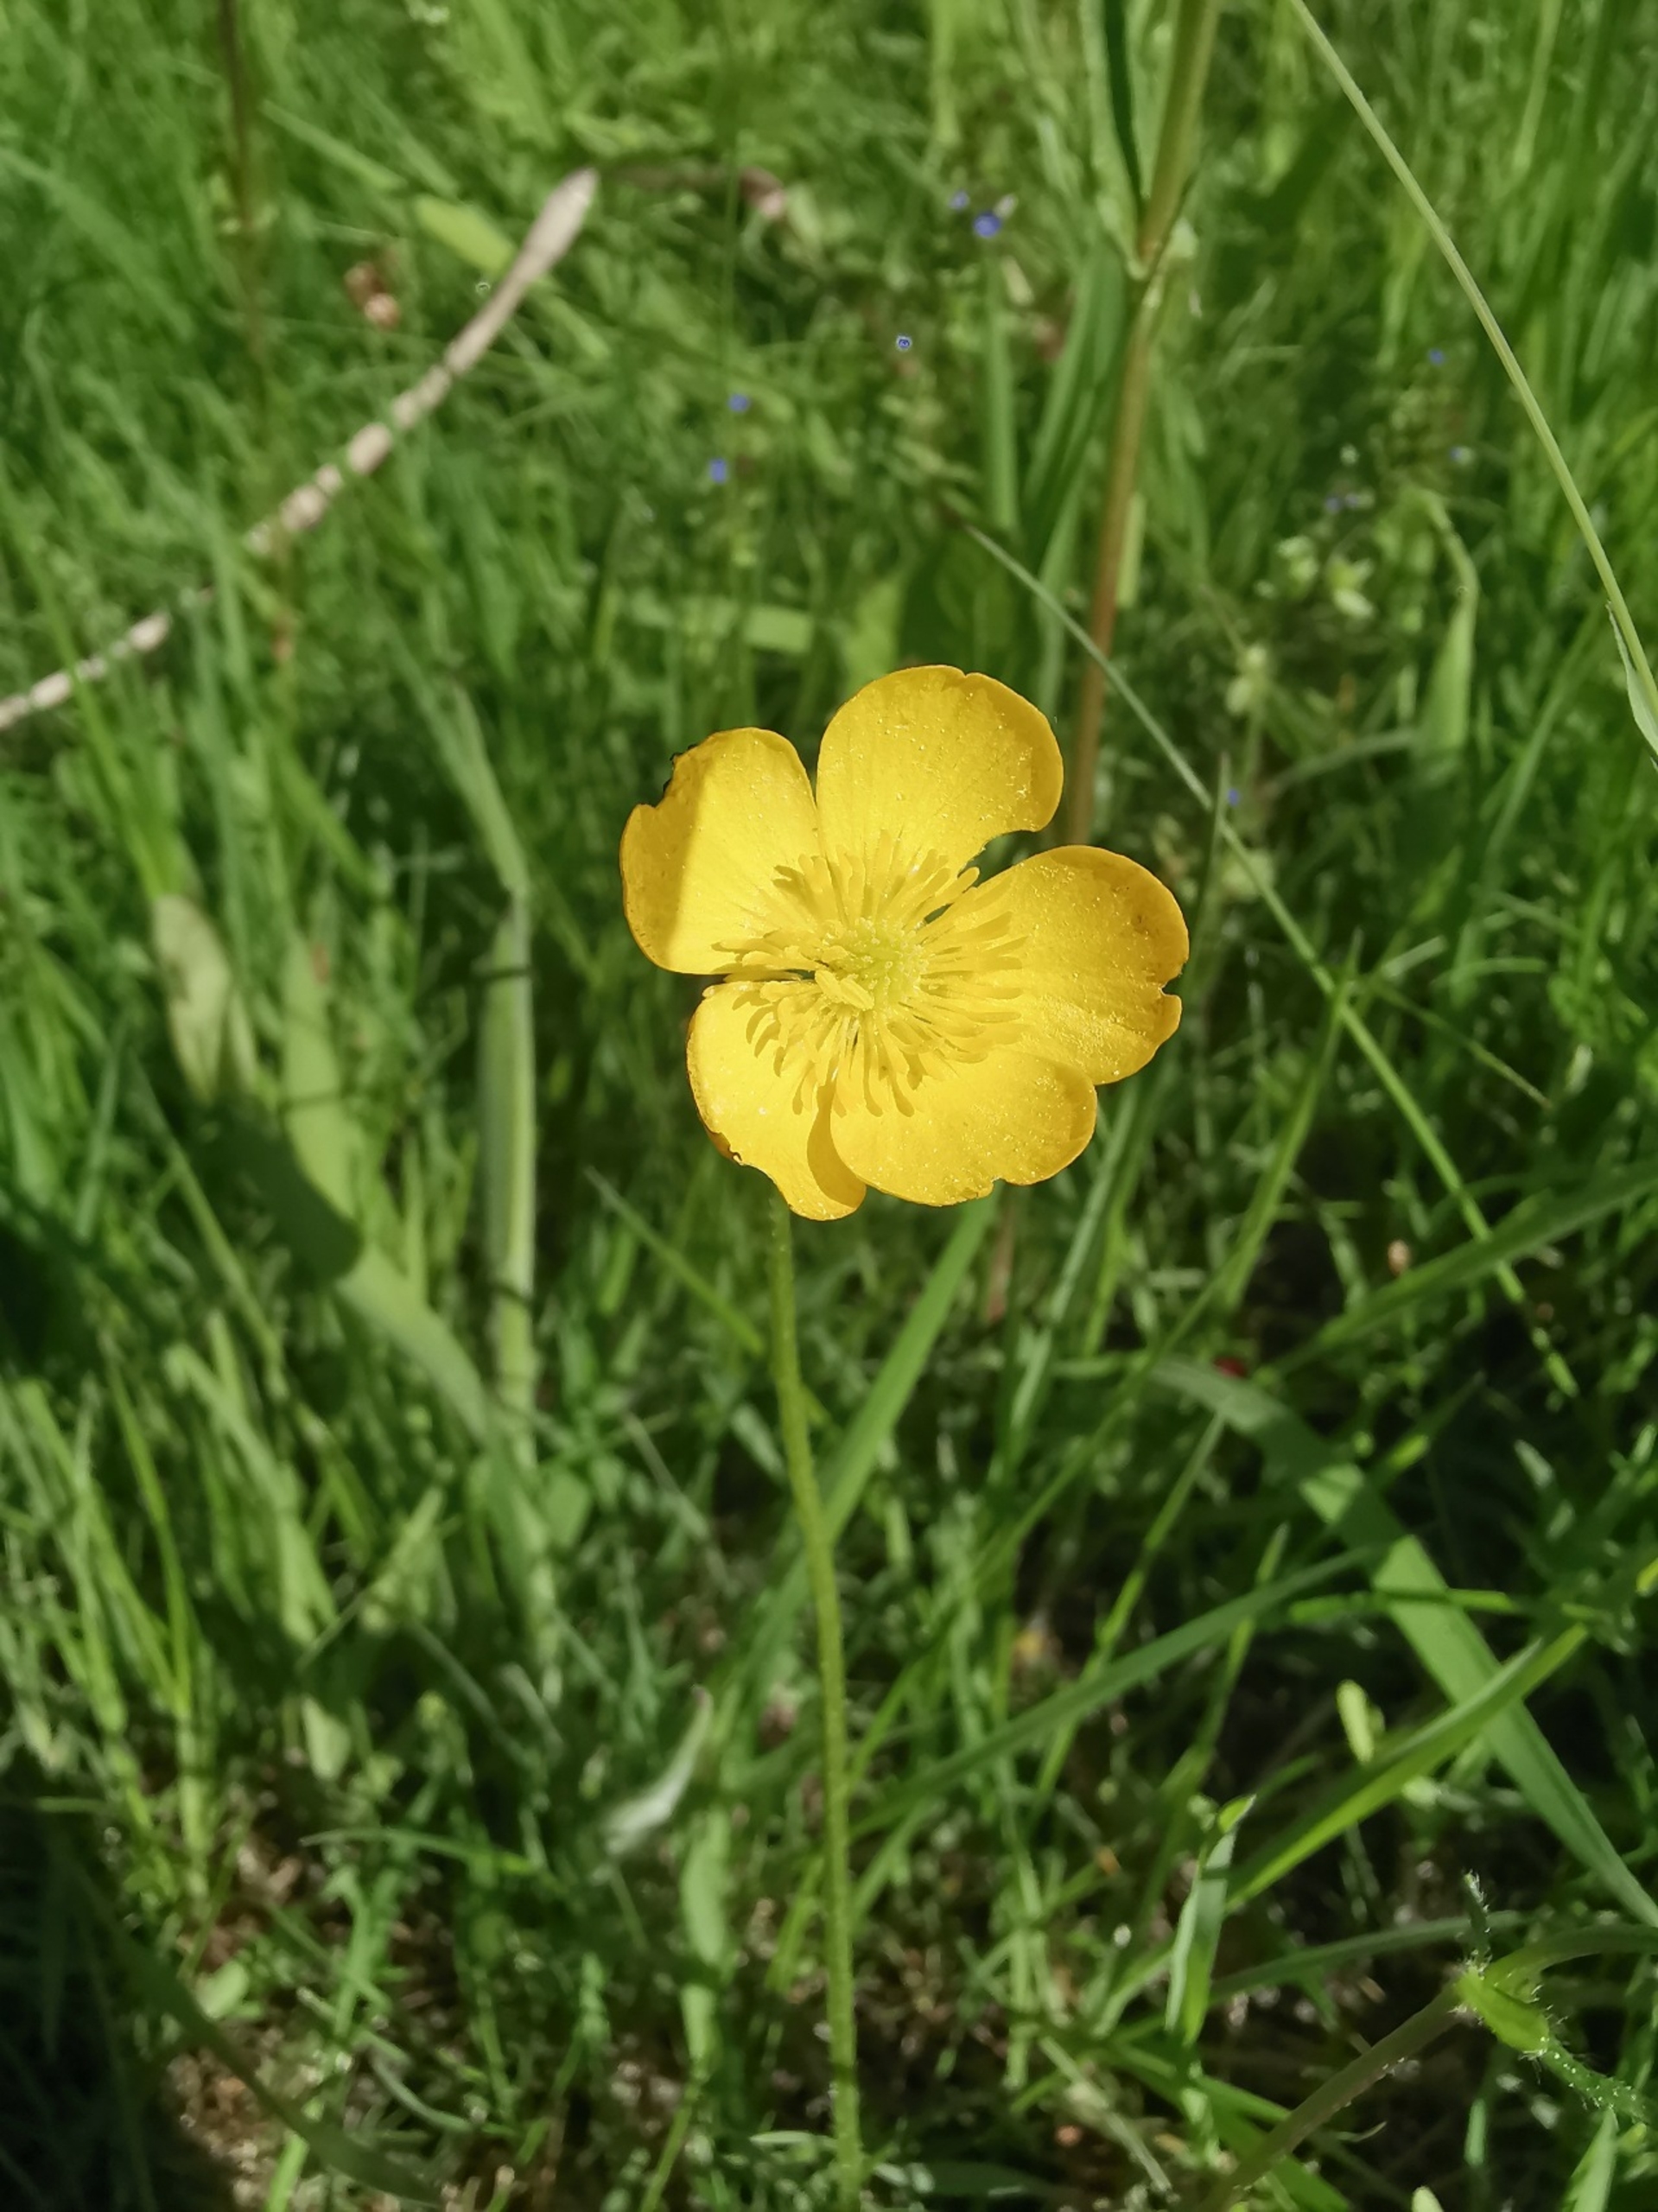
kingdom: Plantae
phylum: Tracheophyta
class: Magnoliopsida
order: Ranunculales
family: Ranunculaceae
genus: Ranunculus
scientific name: Ranunculus acris
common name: Bidende ranunkel
